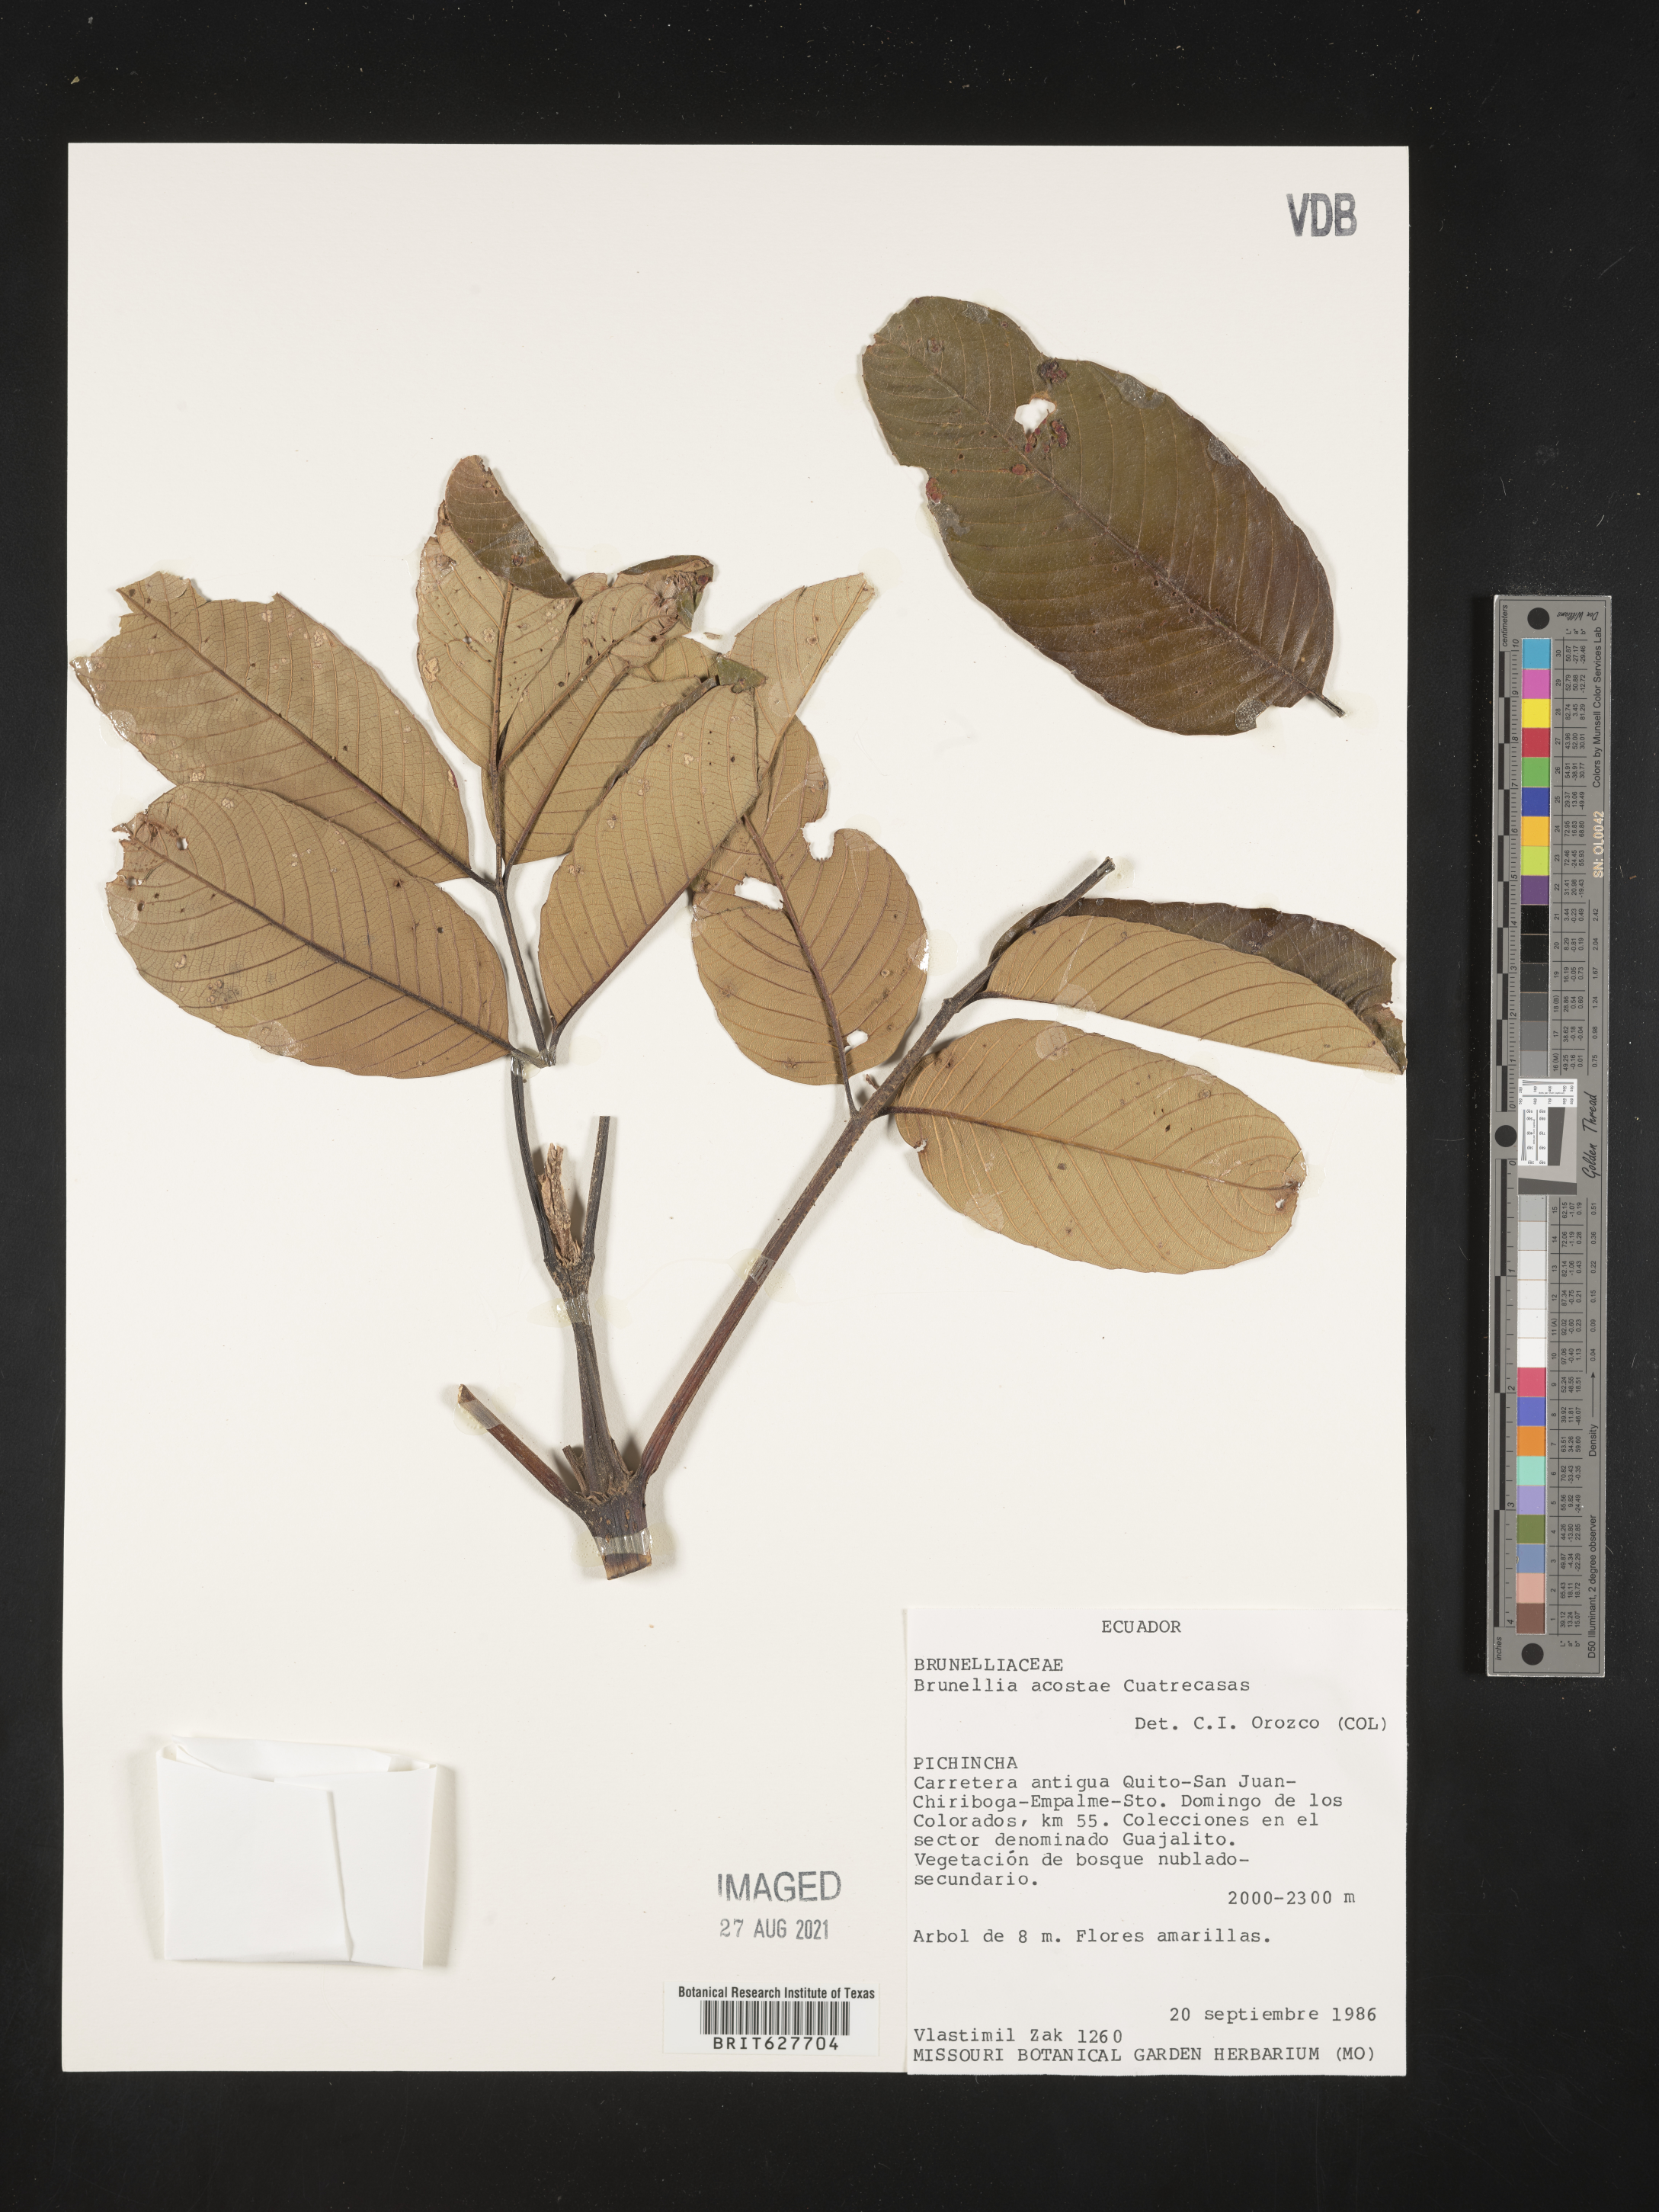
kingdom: Plantae
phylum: Tracheophyta
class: Magnoliopsida
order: Oxalidales
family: Brunelliaceae
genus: Brunellia
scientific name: Brunellia acostae
